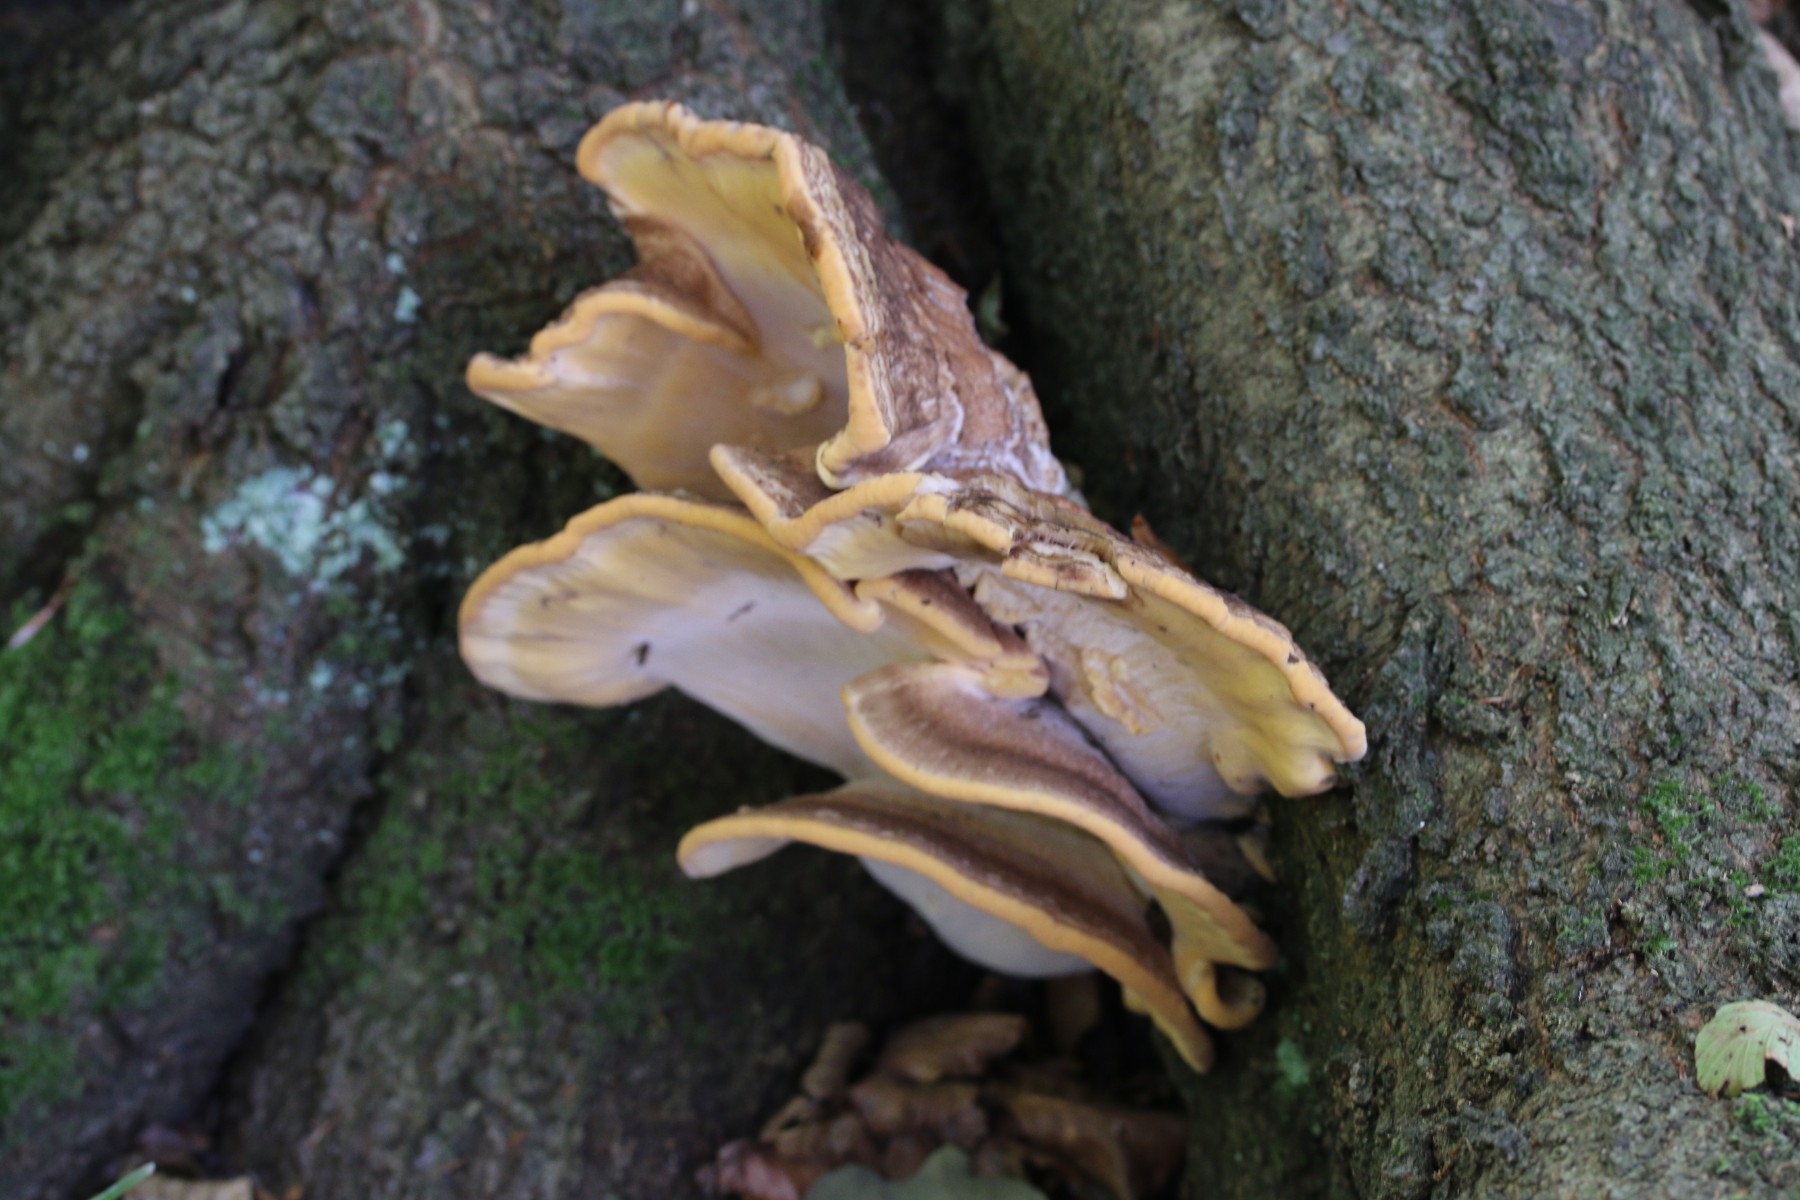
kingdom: Fungi
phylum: Basidiomycota
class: Agaricomycetes
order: Polyporales
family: Meripilaceae
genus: Meripilus
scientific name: Meripilus giganteus
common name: kæmpeporesvamp
